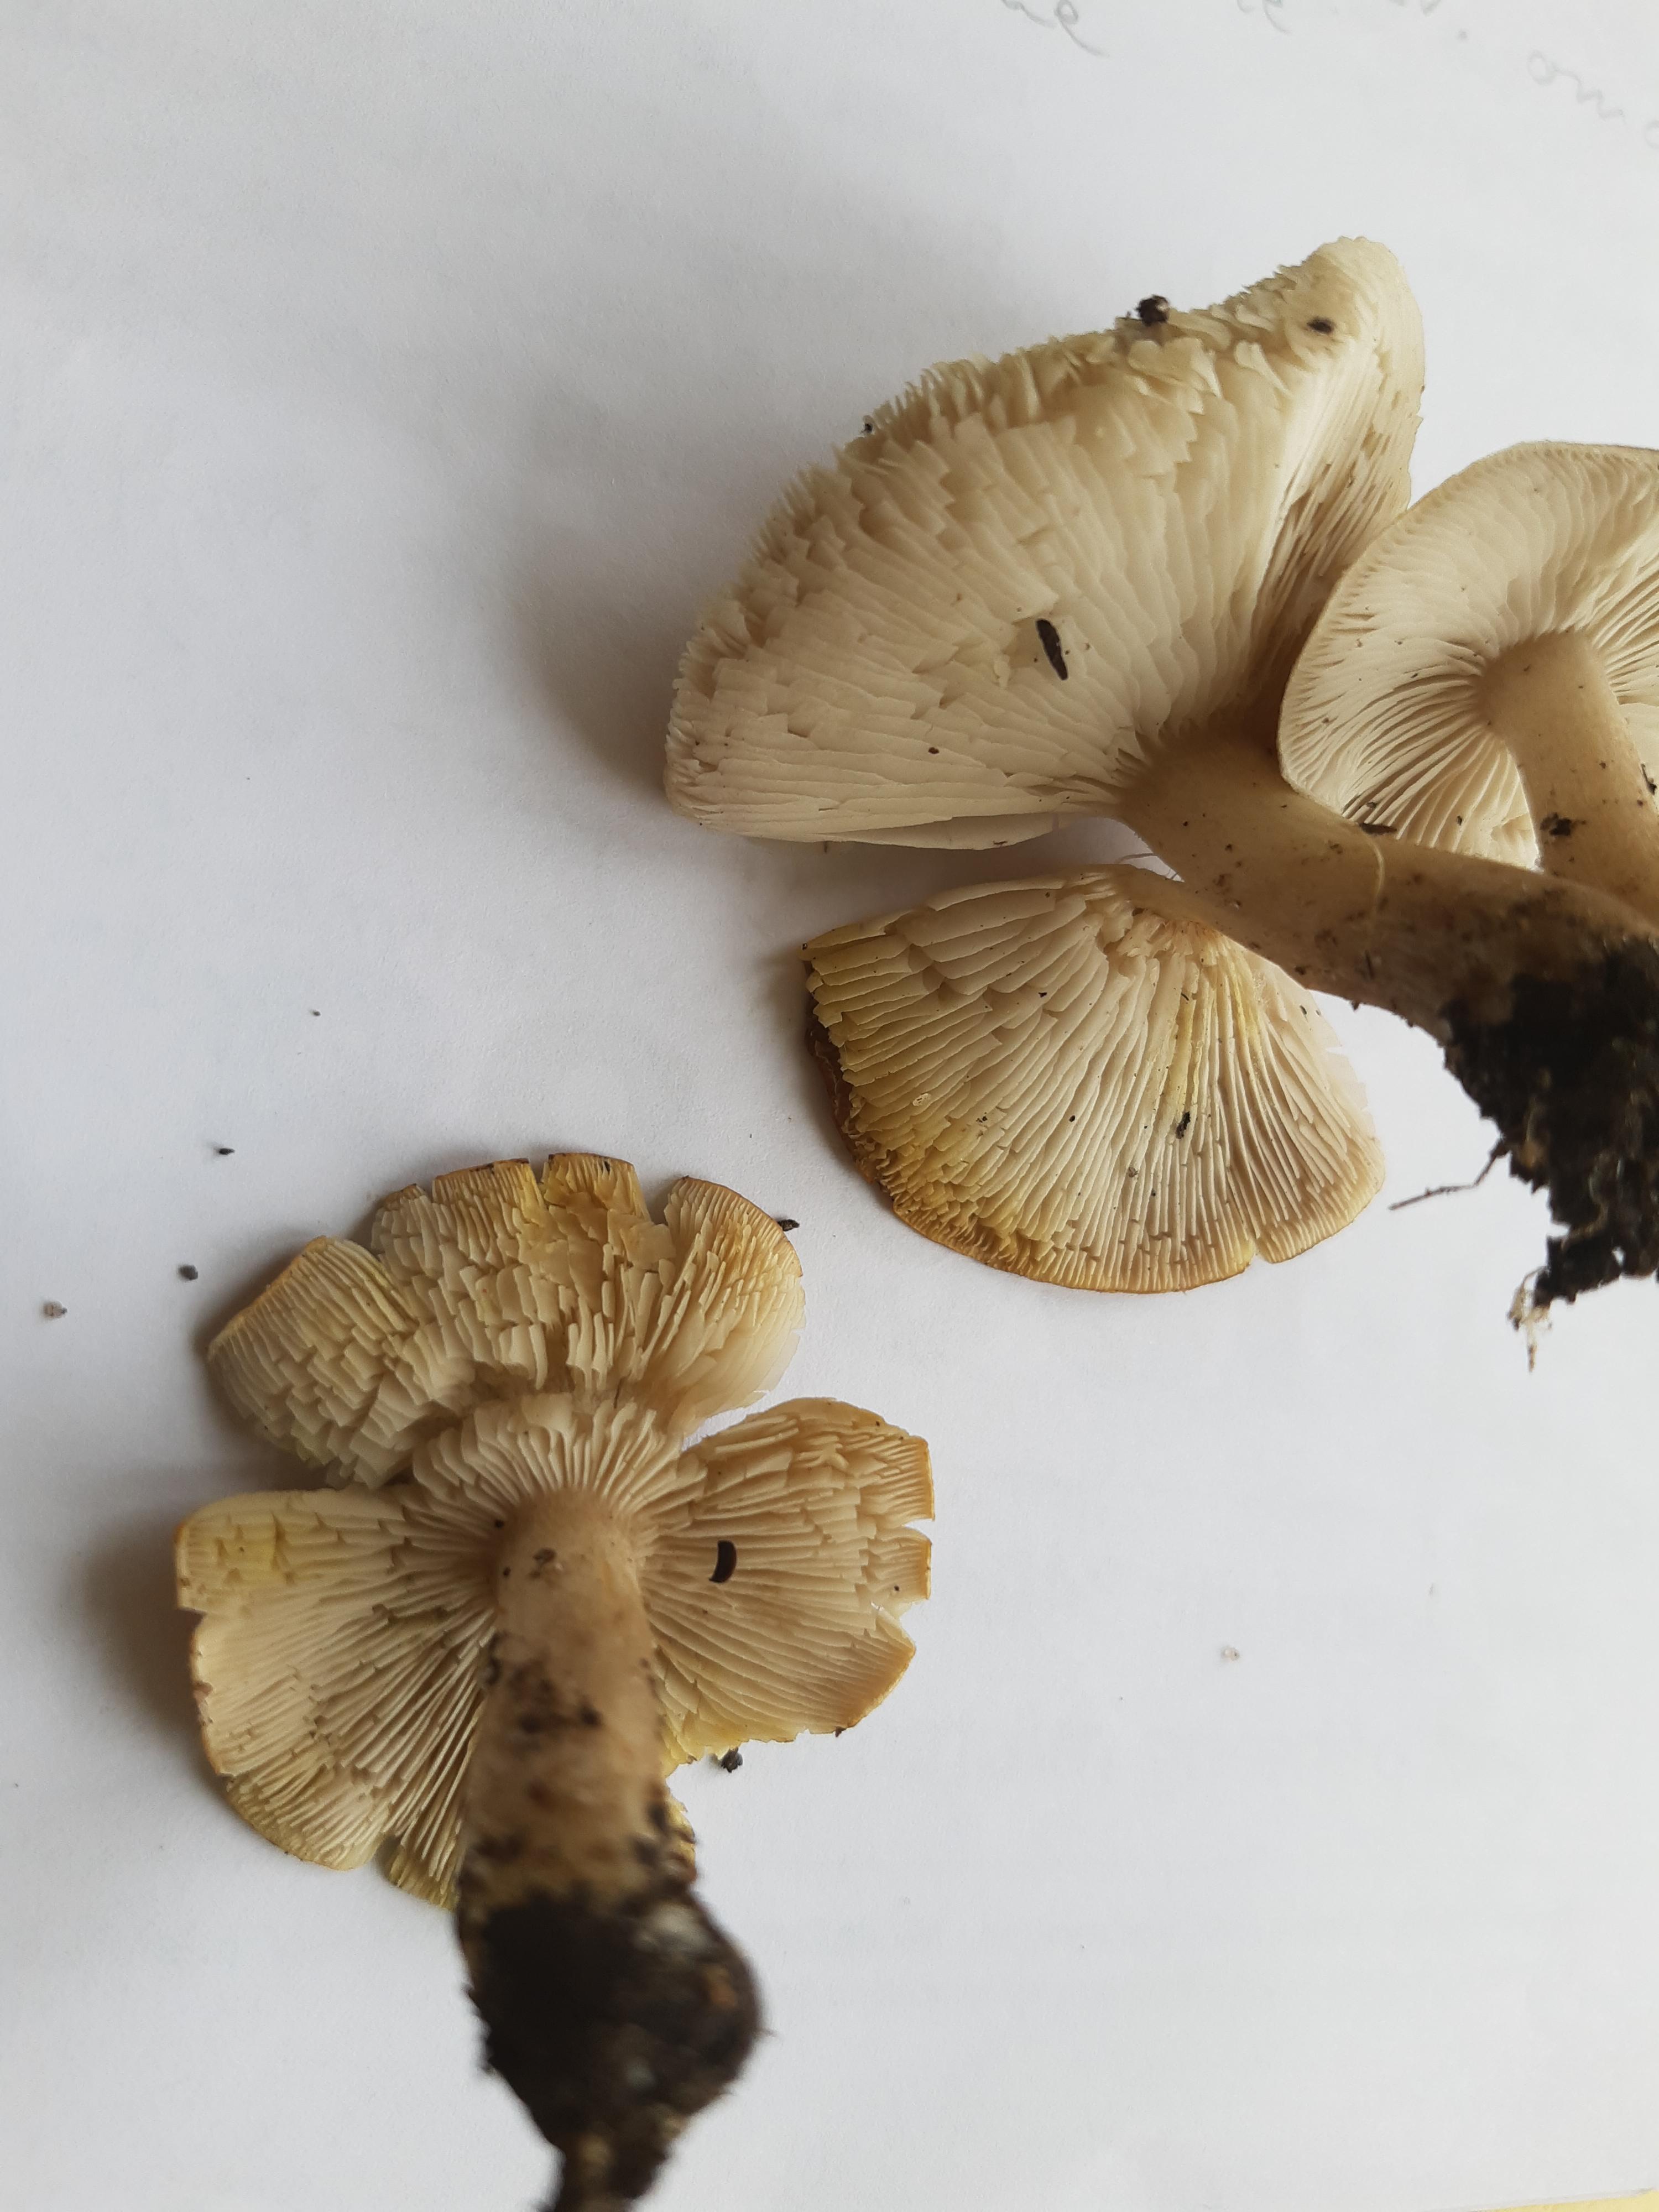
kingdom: Fungi
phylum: Basidiomycota
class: Agaricomycetes
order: Agaricales
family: Tricholomataceae
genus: Tricholoma
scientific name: Tricholoma scalpturatum
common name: gulplettet ridderhat
